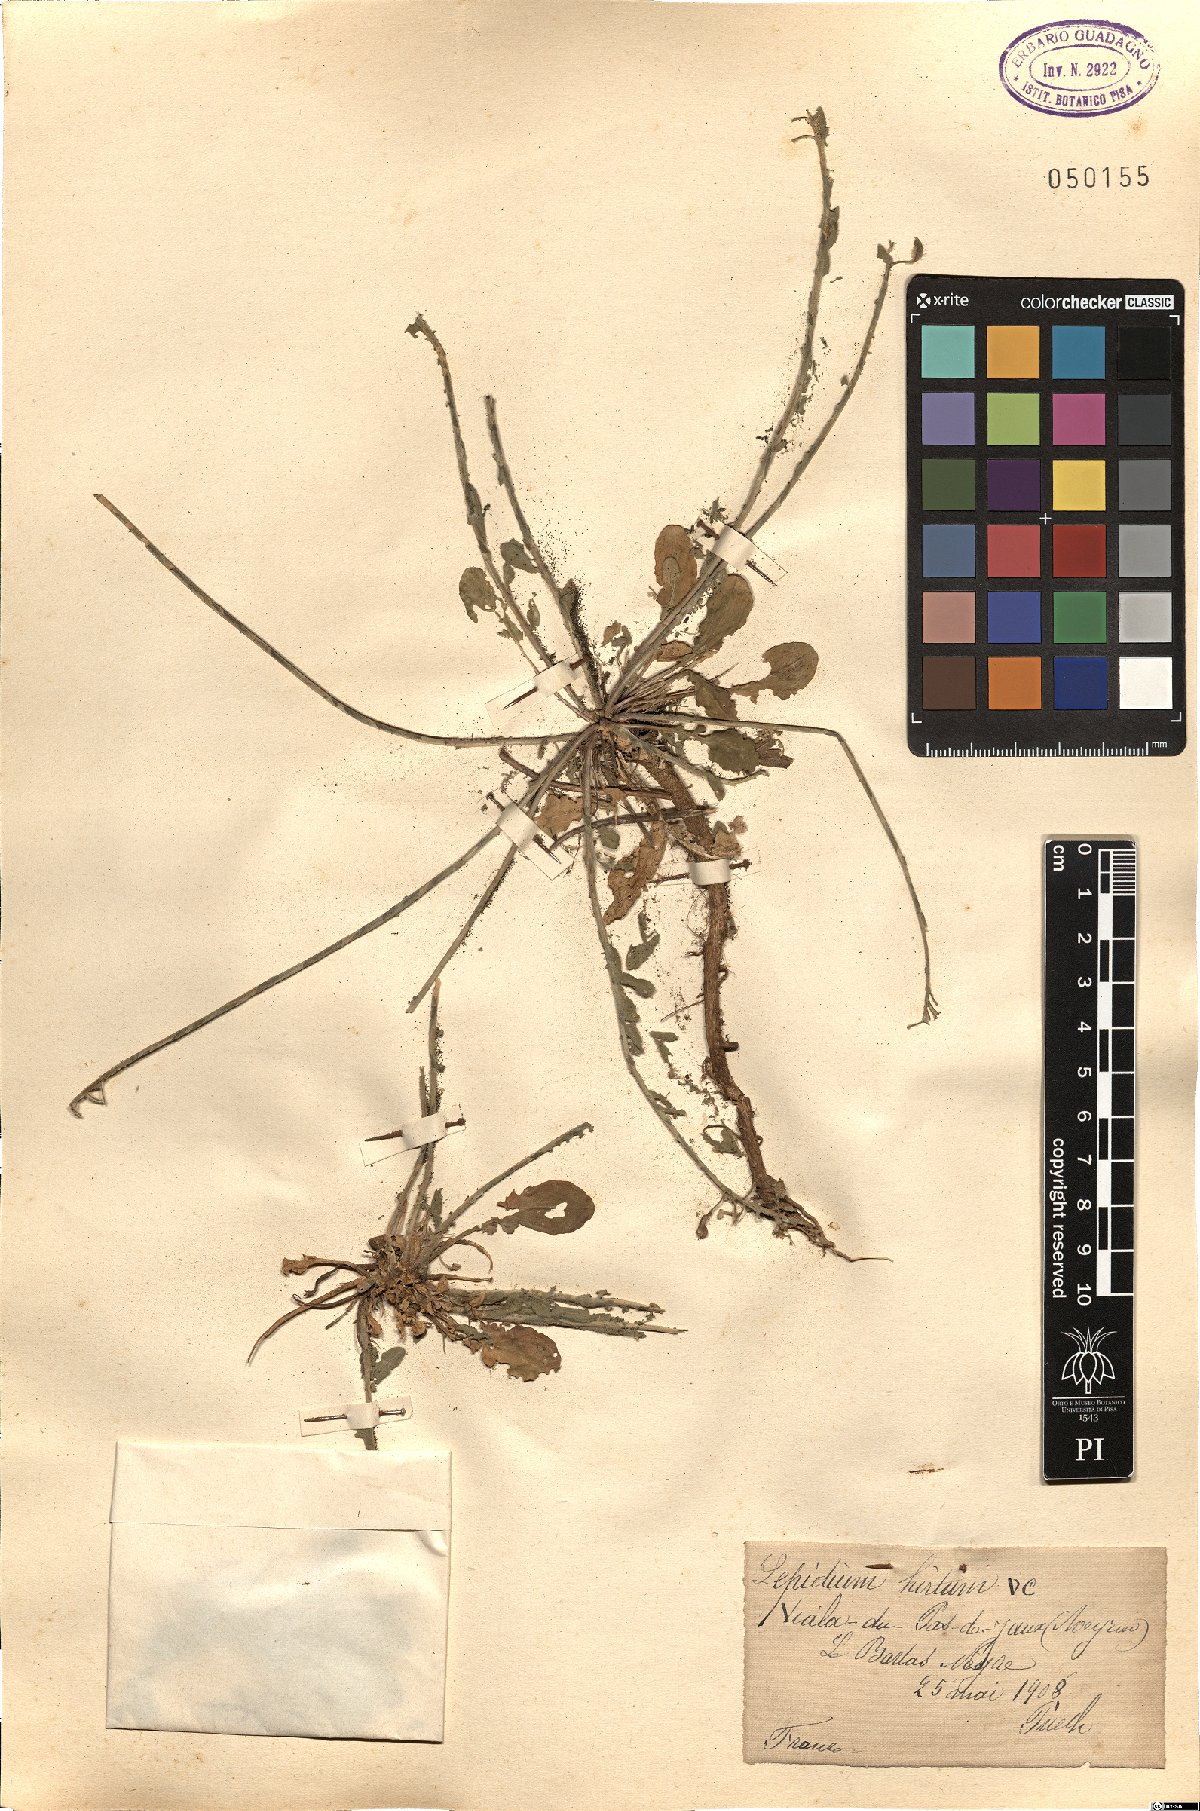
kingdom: Plantae
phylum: Tracheophyta
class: Magnoliopsida
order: Brassicales
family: Brassicaceae
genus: Lepidium
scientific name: Lepidium hirtum
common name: Mediterranean pepperweed
